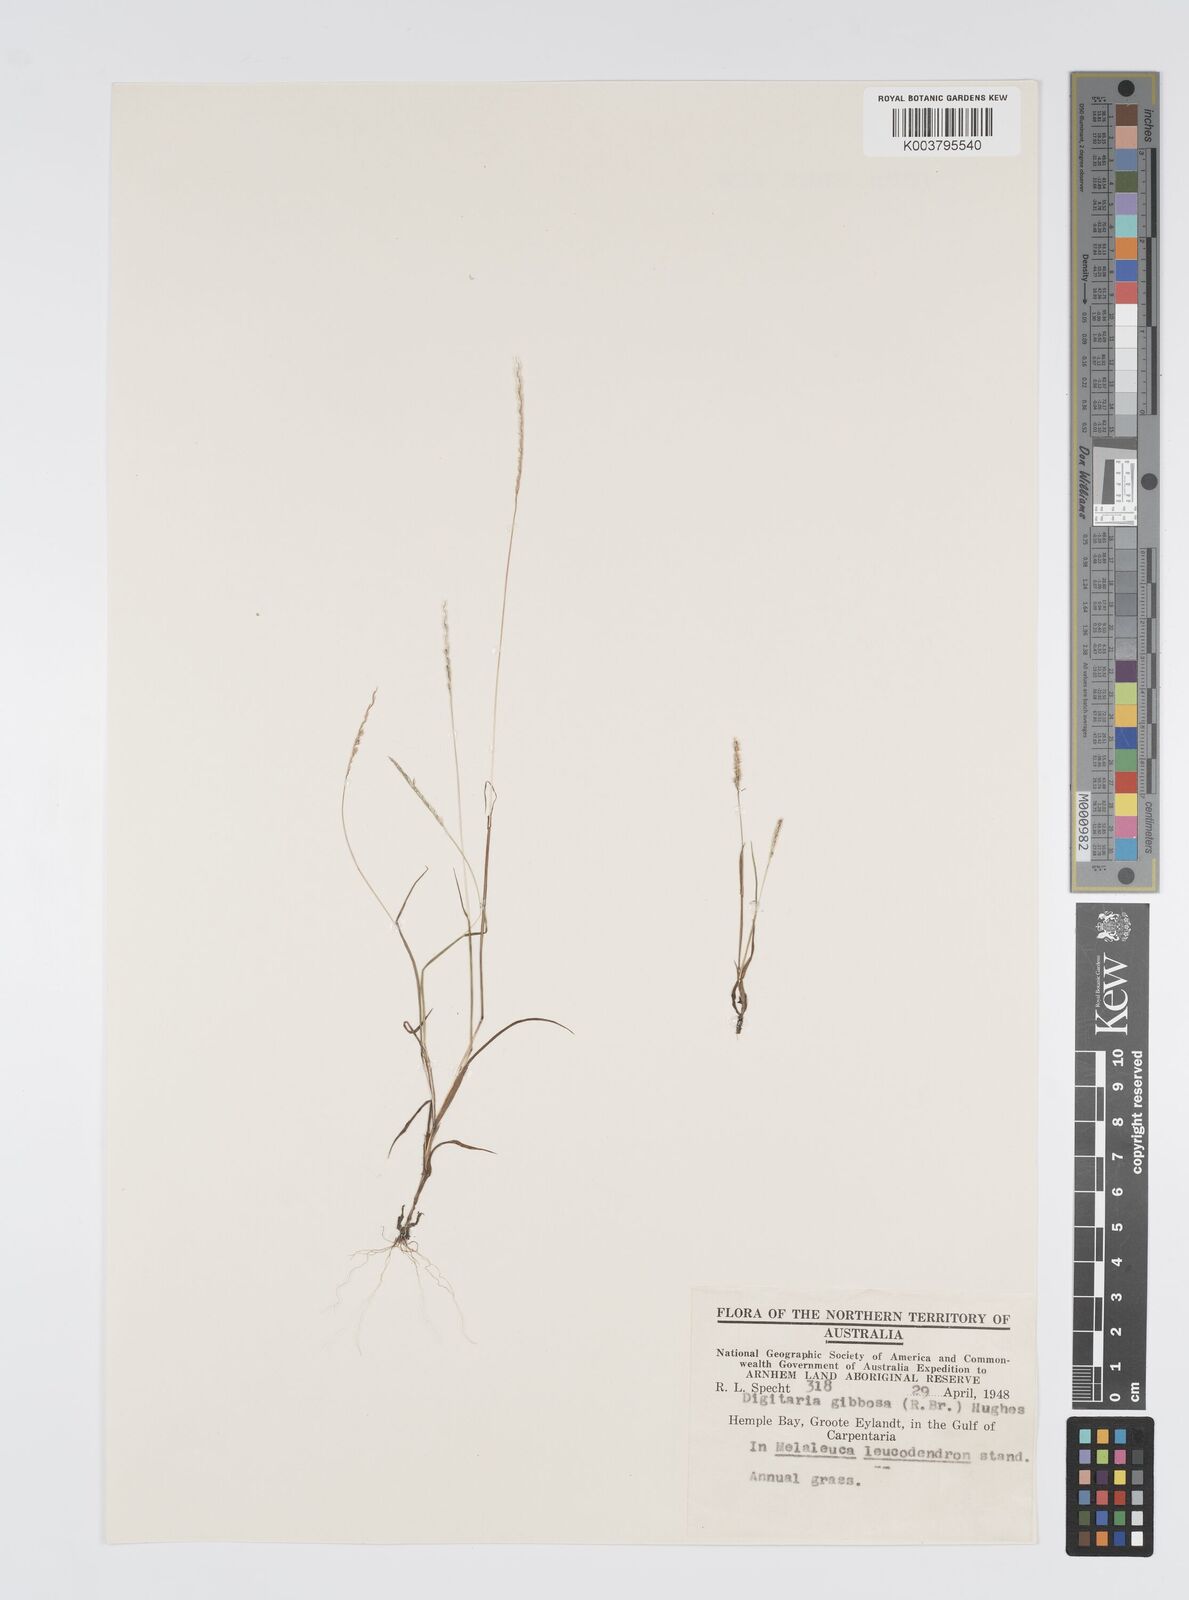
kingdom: Plantae
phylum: Tracheophyta
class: Liliopsida
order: Poales
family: Poaceae
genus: Digitaria
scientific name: Digitaria gibbosa
